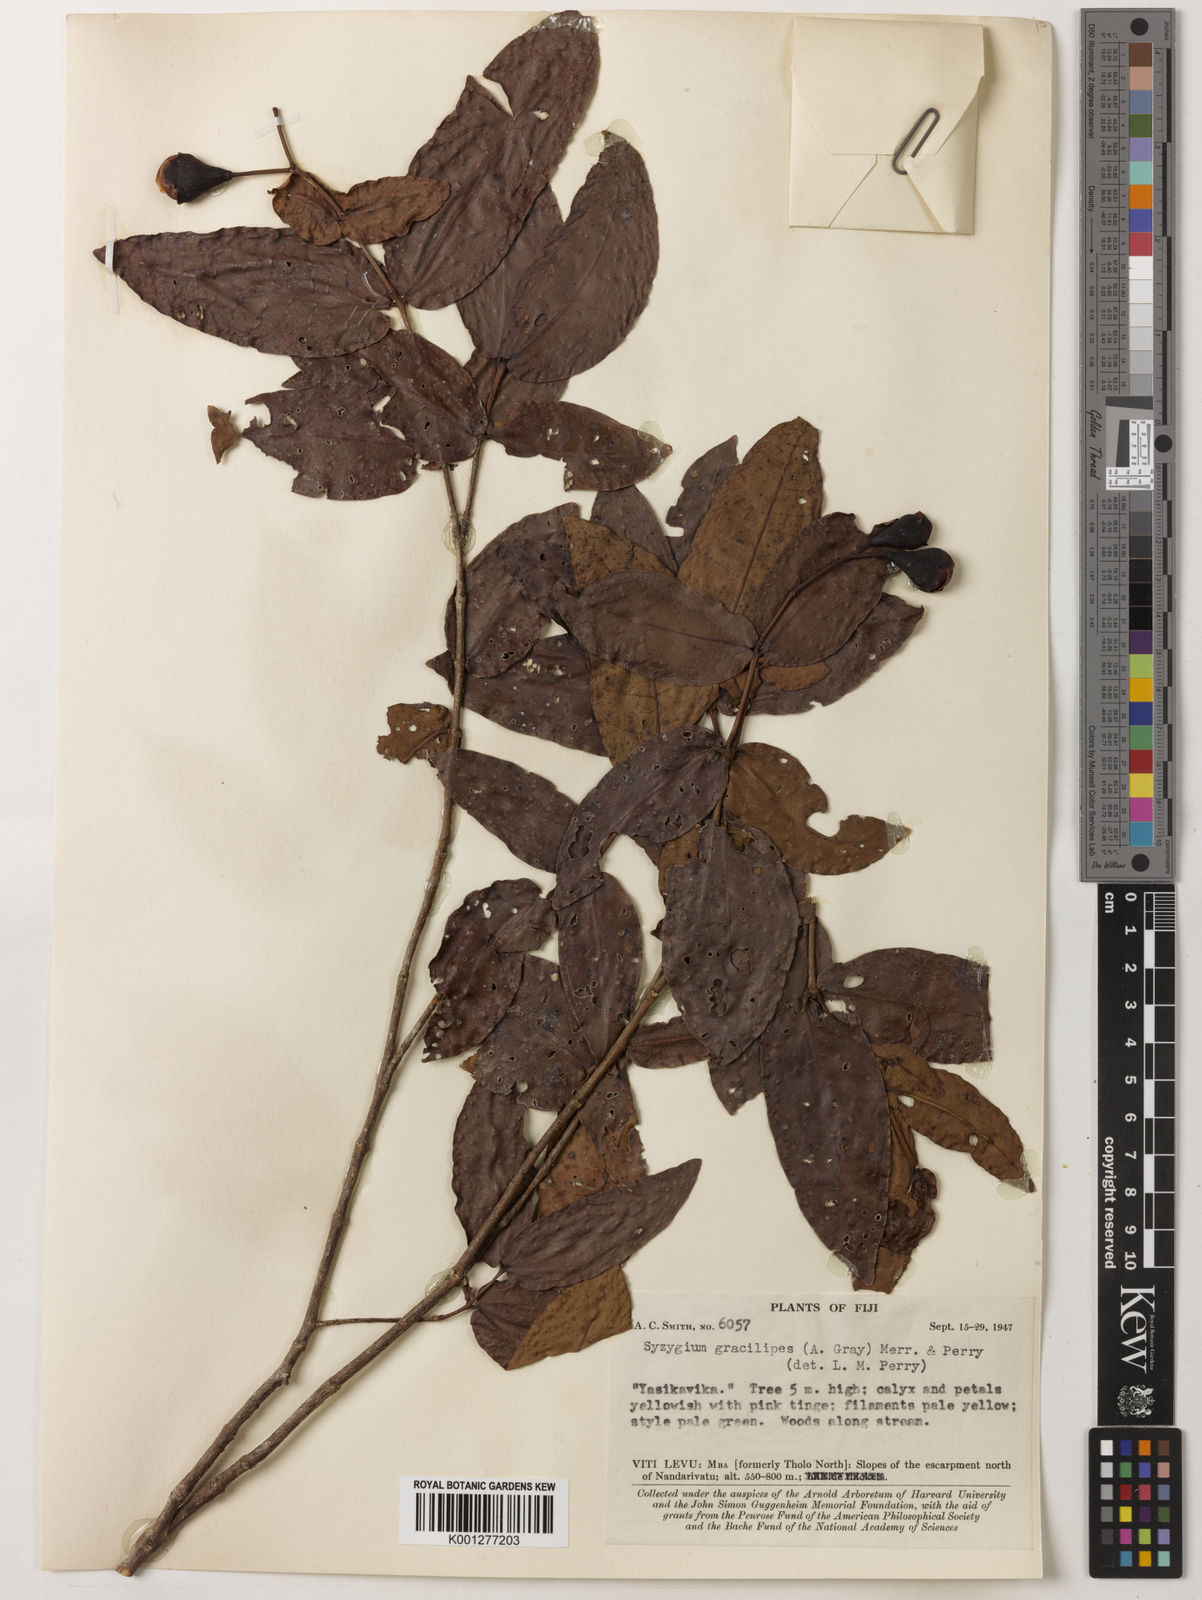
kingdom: Plantae
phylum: Tracheophyta
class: Magnoliopsida
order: Myrtales
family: Myrtaceae
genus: Syzygium
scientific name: Syzygium gracilipes
